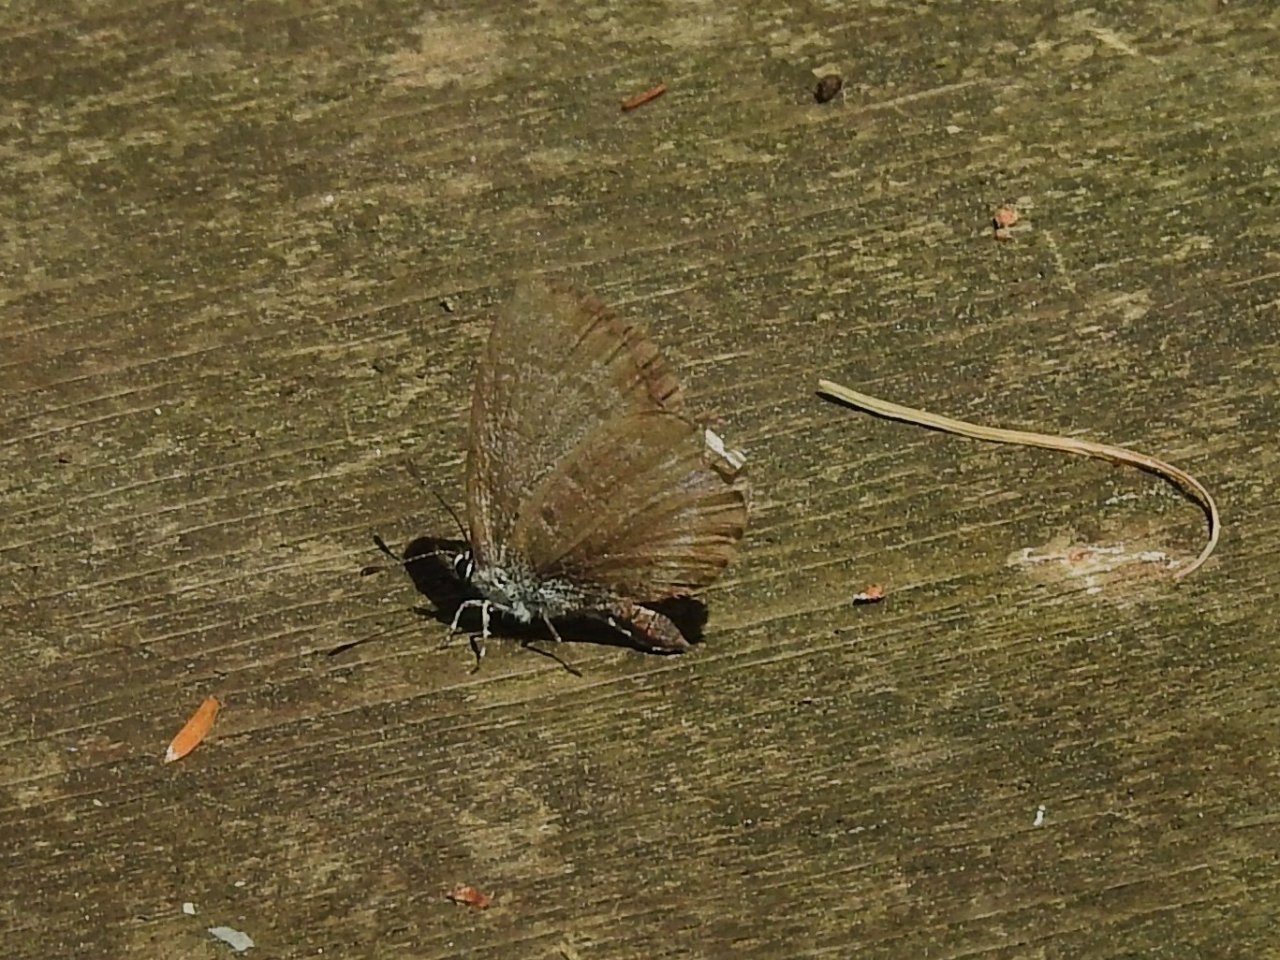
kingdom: Animalia
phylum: Arthropoda
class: Insecta
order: Lepidoptera
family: Lycaenidae
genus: Celastrina
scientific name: Celastrina lucia
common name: Northern Spring Azure
